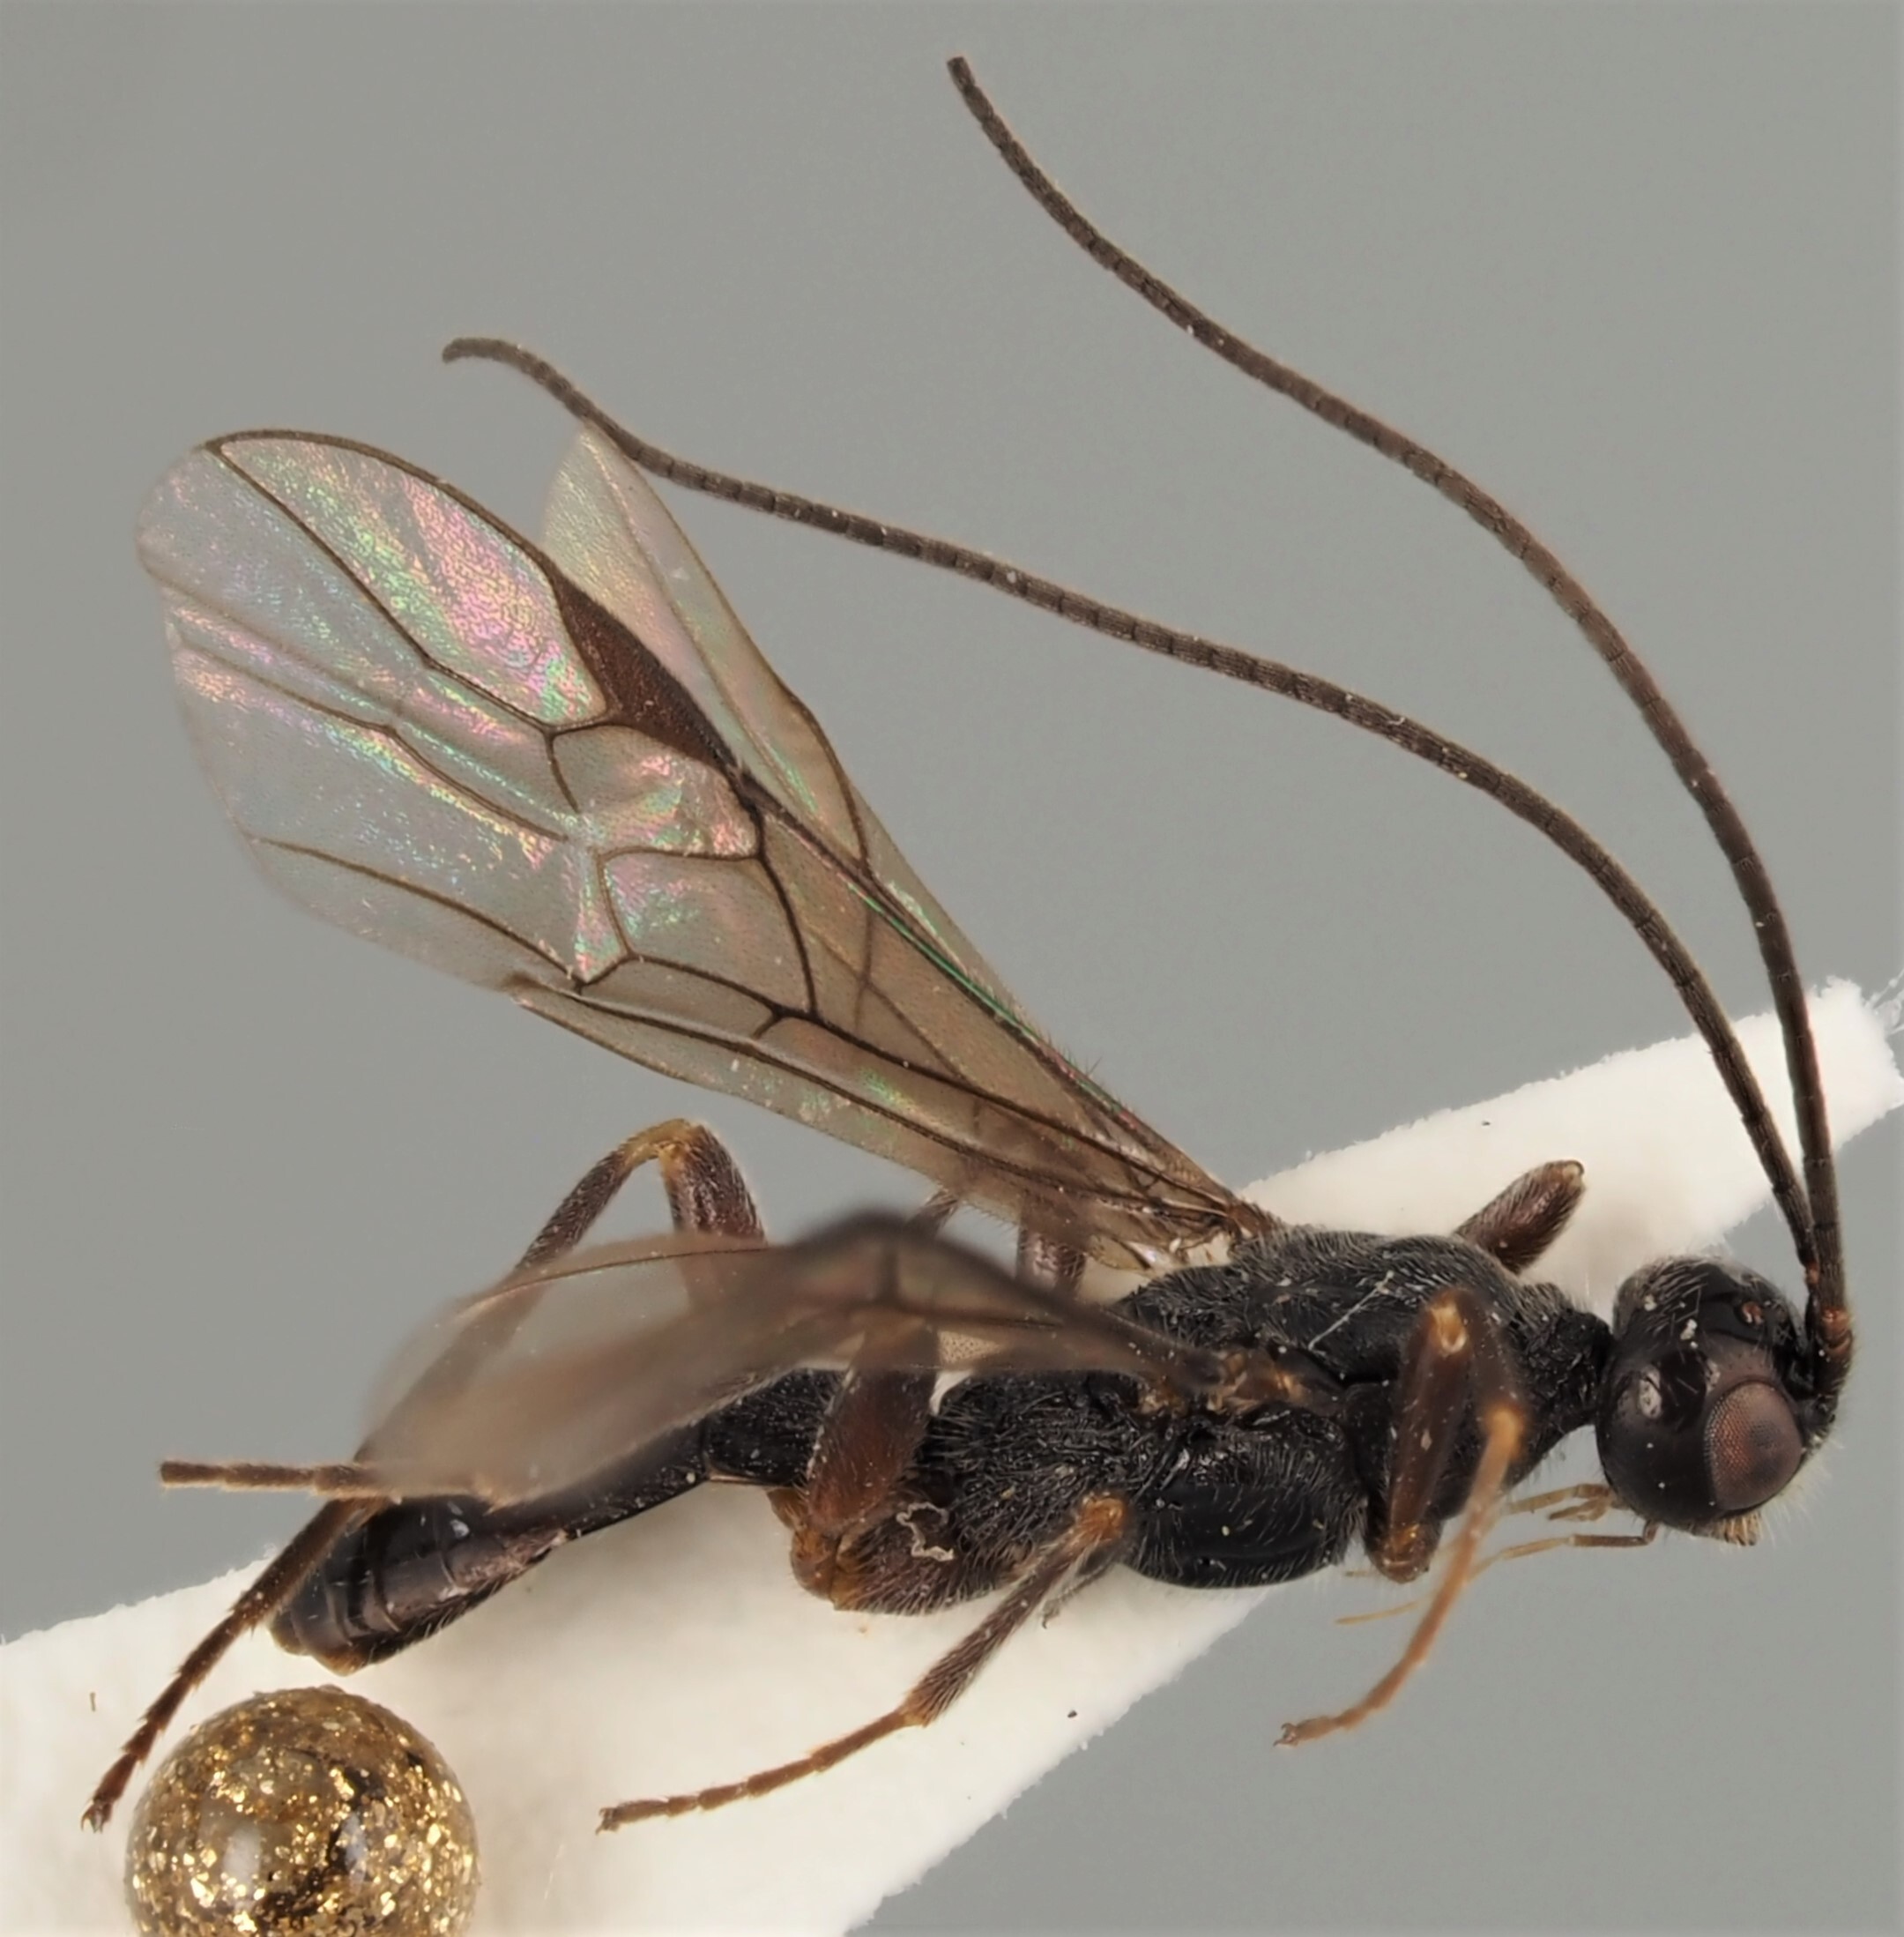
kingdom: Animalia
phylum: Arthropoda
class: Insecta
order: Hymenoptera
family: Braconidae
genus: Hecabolus
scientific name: Hecabolus sulcatus
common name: Braconid wasp
